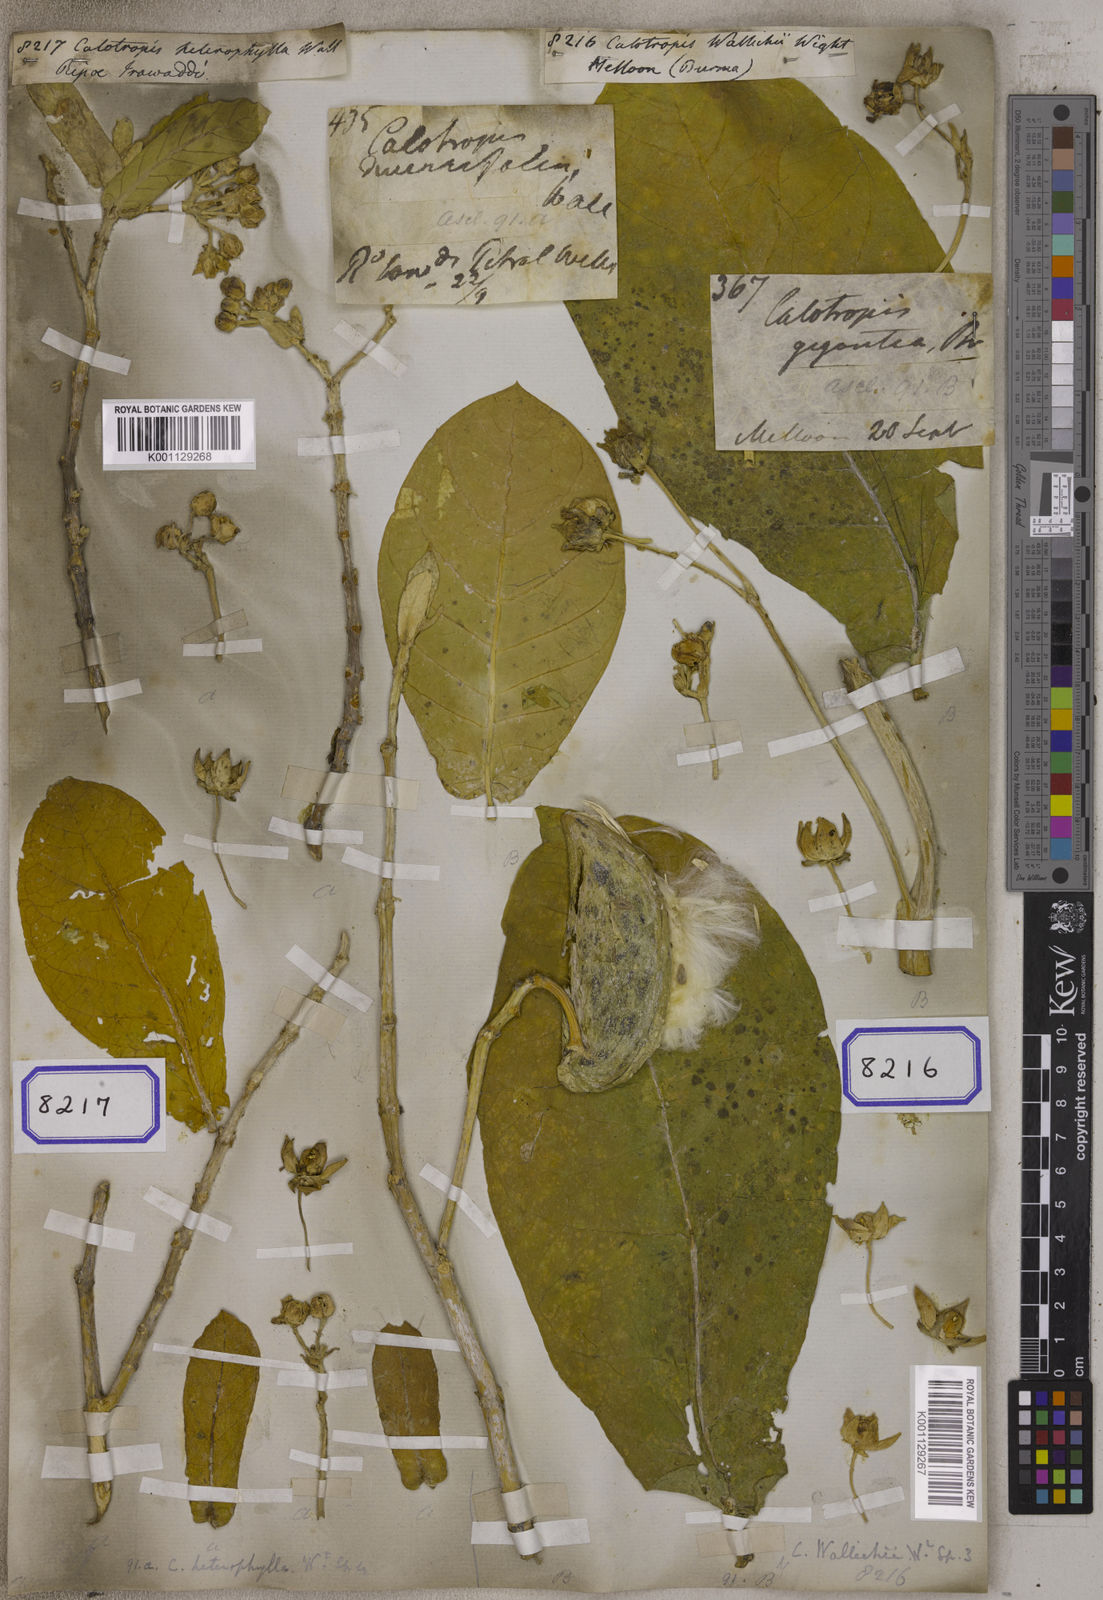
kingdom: Plantae
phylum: Tracheophyta
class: Magnoliopsida
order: Gentianales
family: Apocynaceae
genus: Calotropis
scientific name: Calotropis
